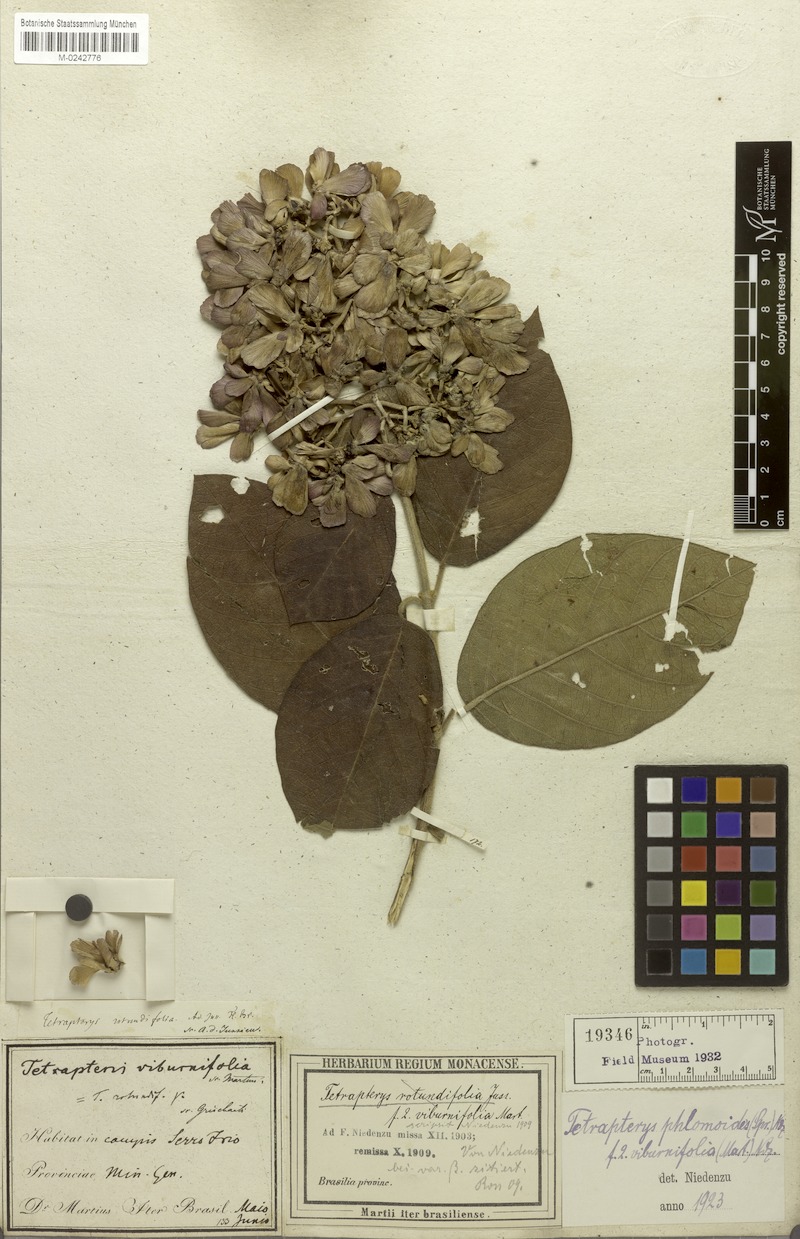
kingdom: Plantae
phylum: Tracheophyta
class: Magnoliopsida
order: Malpighiales
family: Malpighiaceae
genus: Tetrapterys
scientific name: Tetrapterys phlomoides
